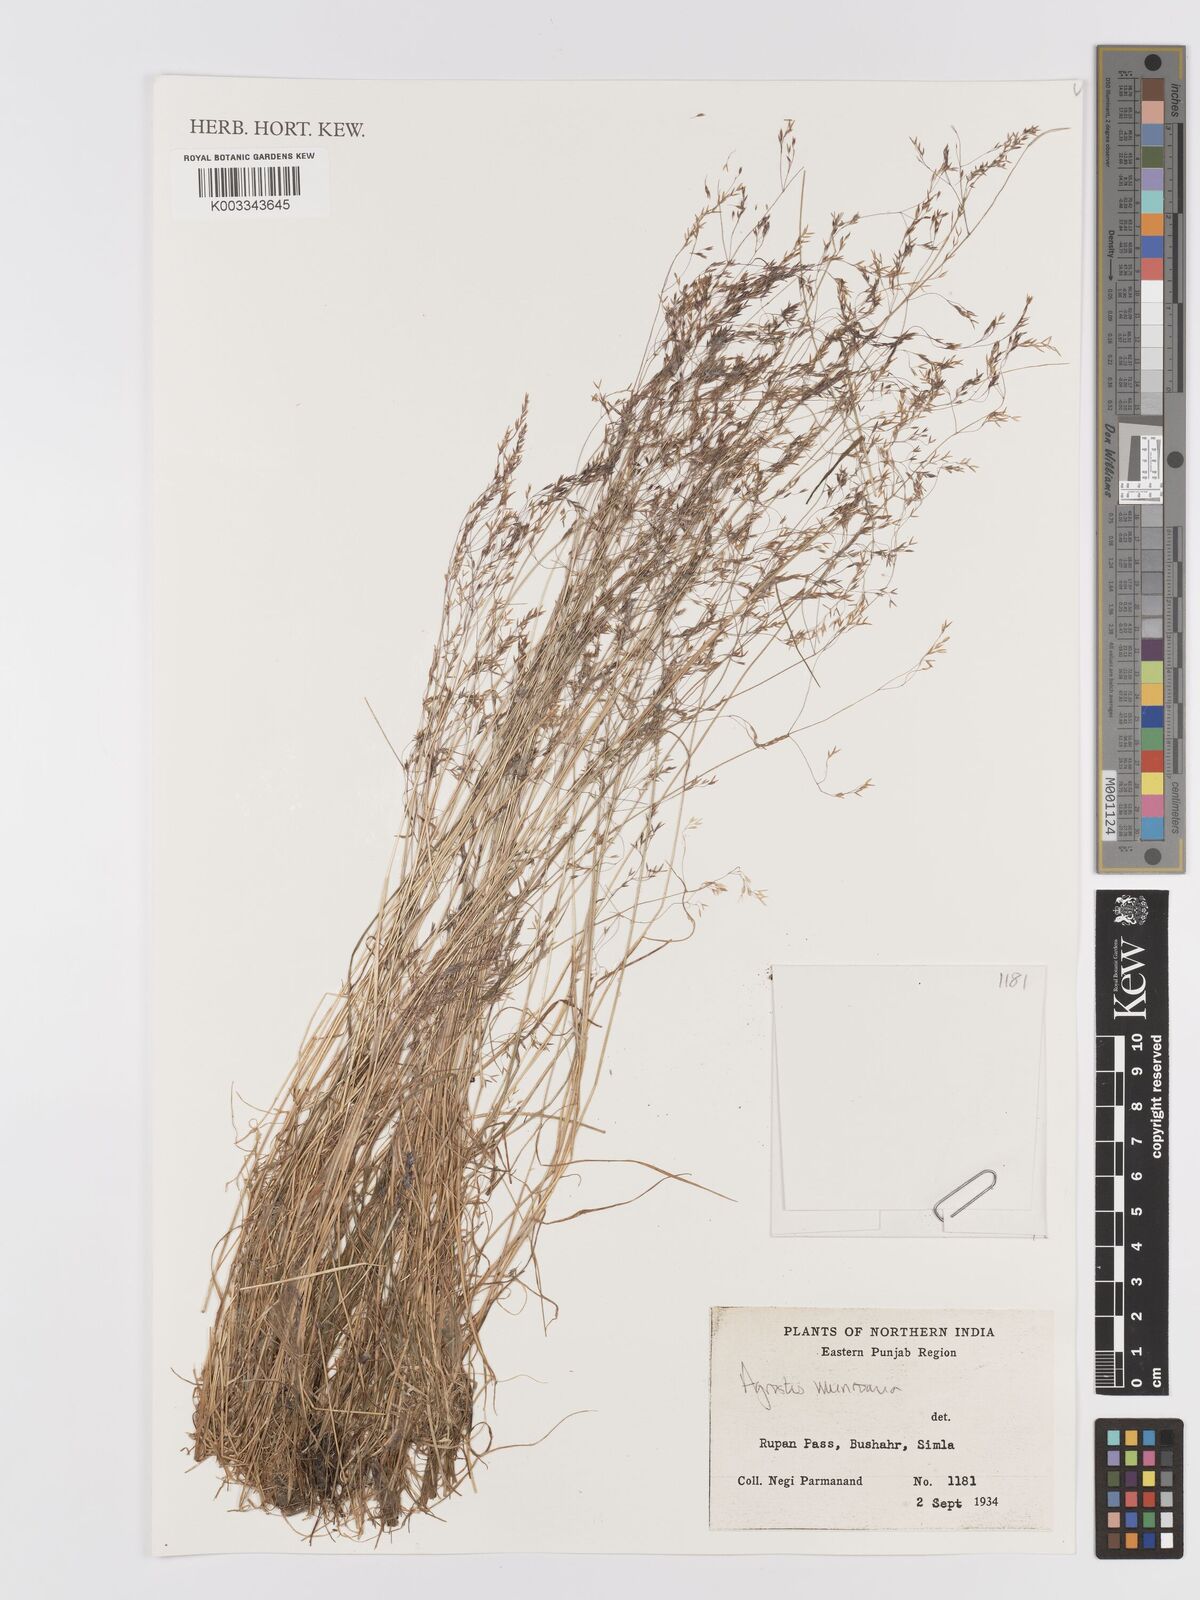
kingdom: Plantae
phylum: Tracheophyta
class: Liliopsida
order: Poales
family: Poaceae
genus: Agrostis
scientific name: Agrostis munroana
